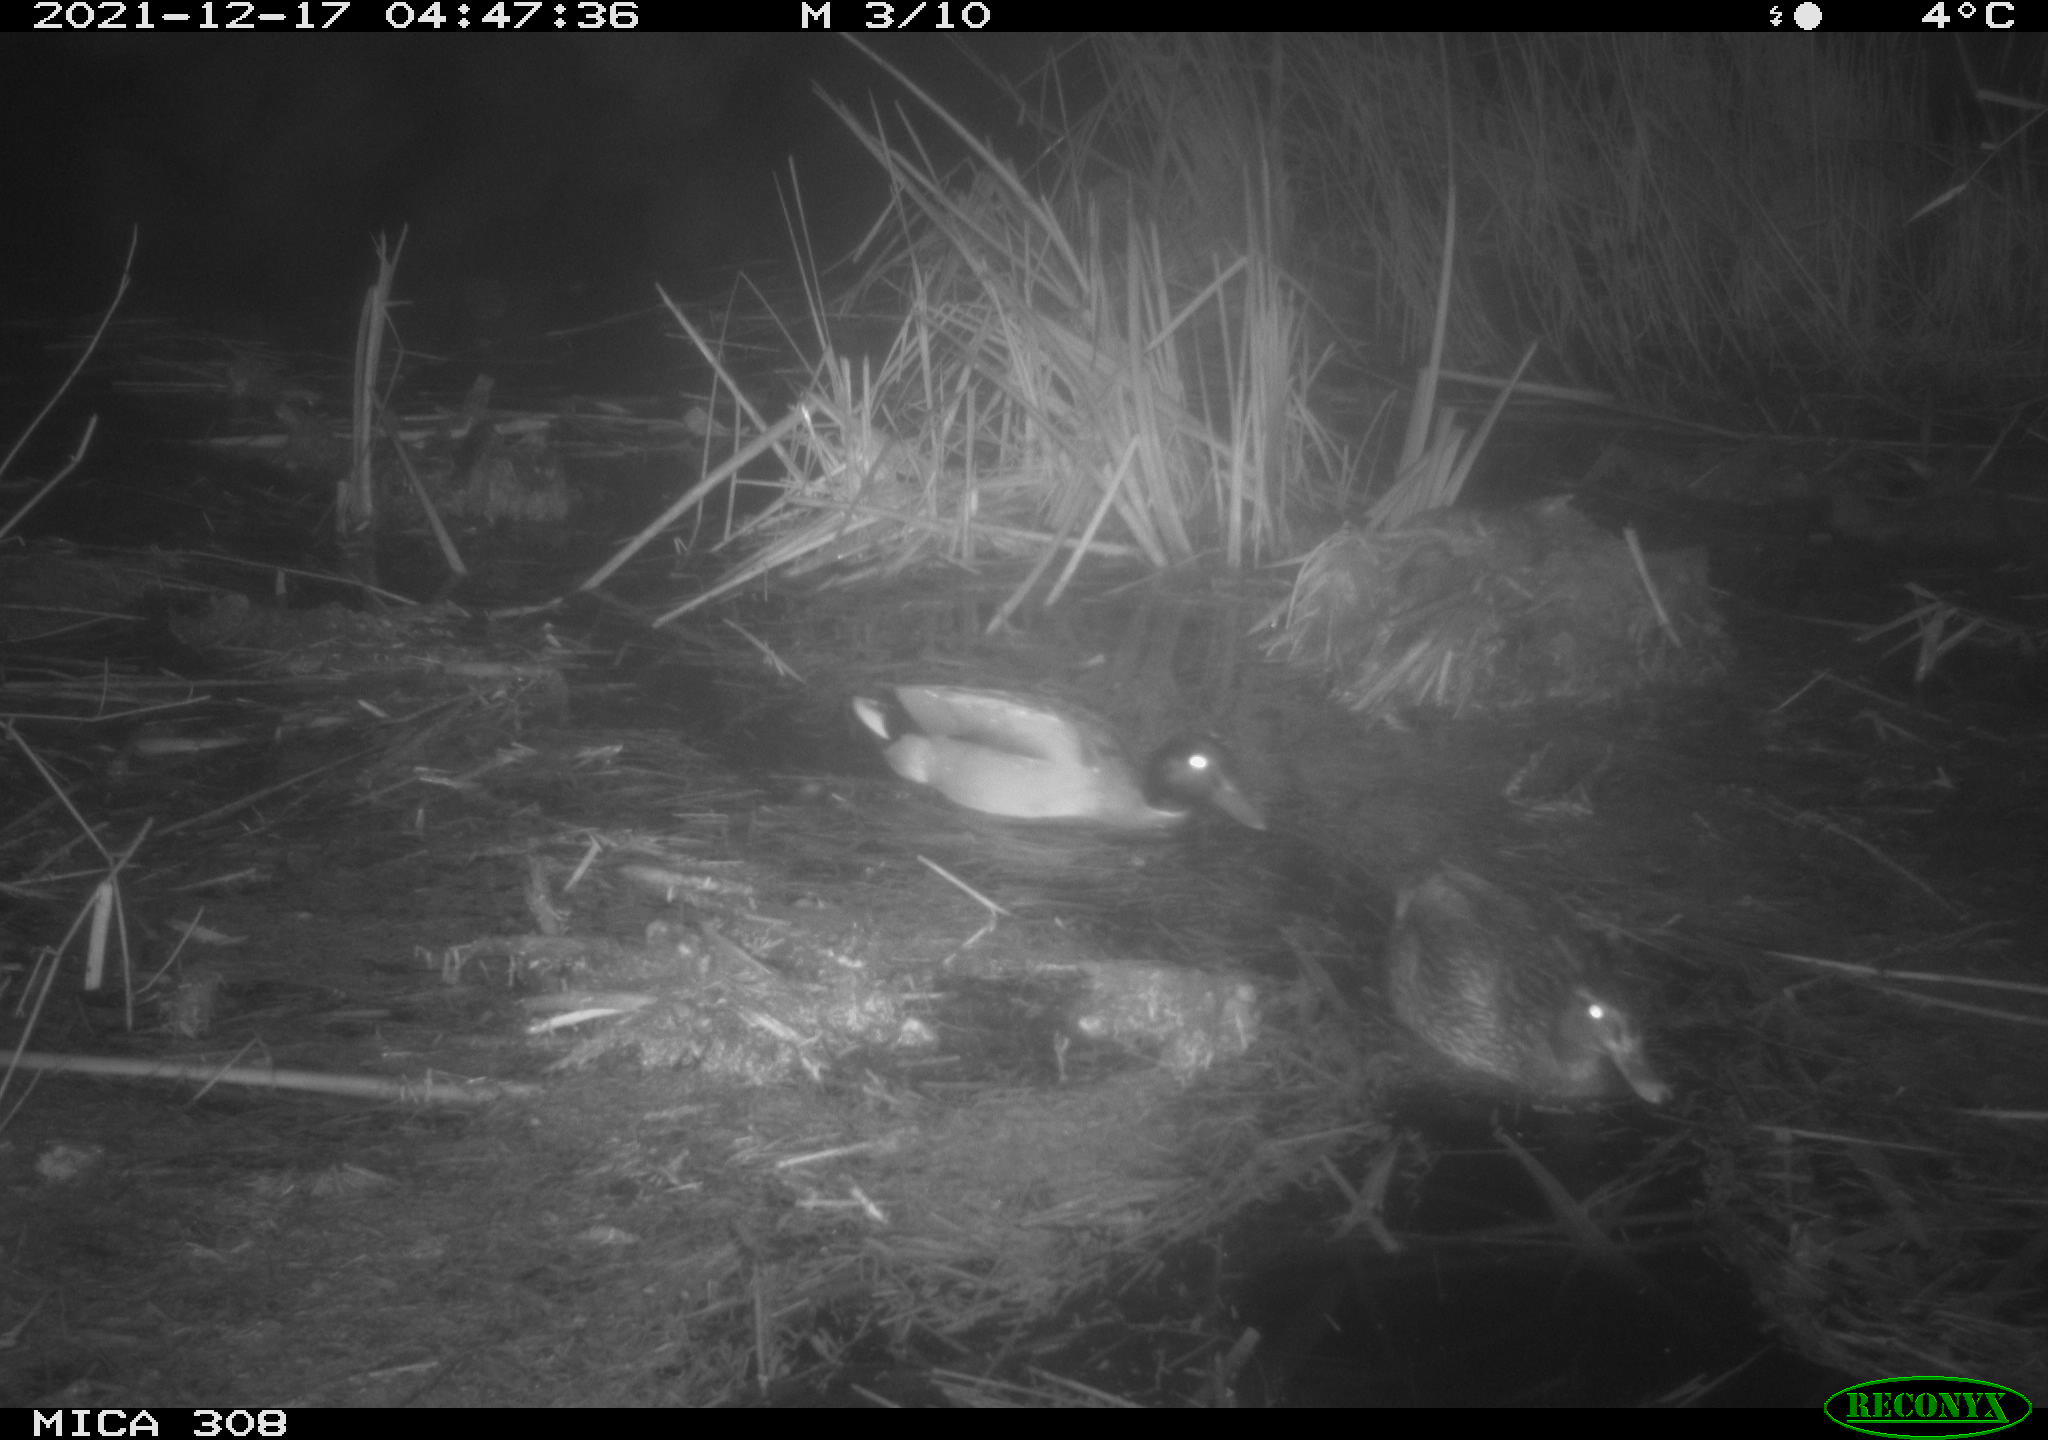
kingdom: Animalia
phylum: Chordata
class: Aves
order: Anseriformes
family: Anatidae
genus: Anas
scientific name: Anas platyrhynchos
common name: Mallard
